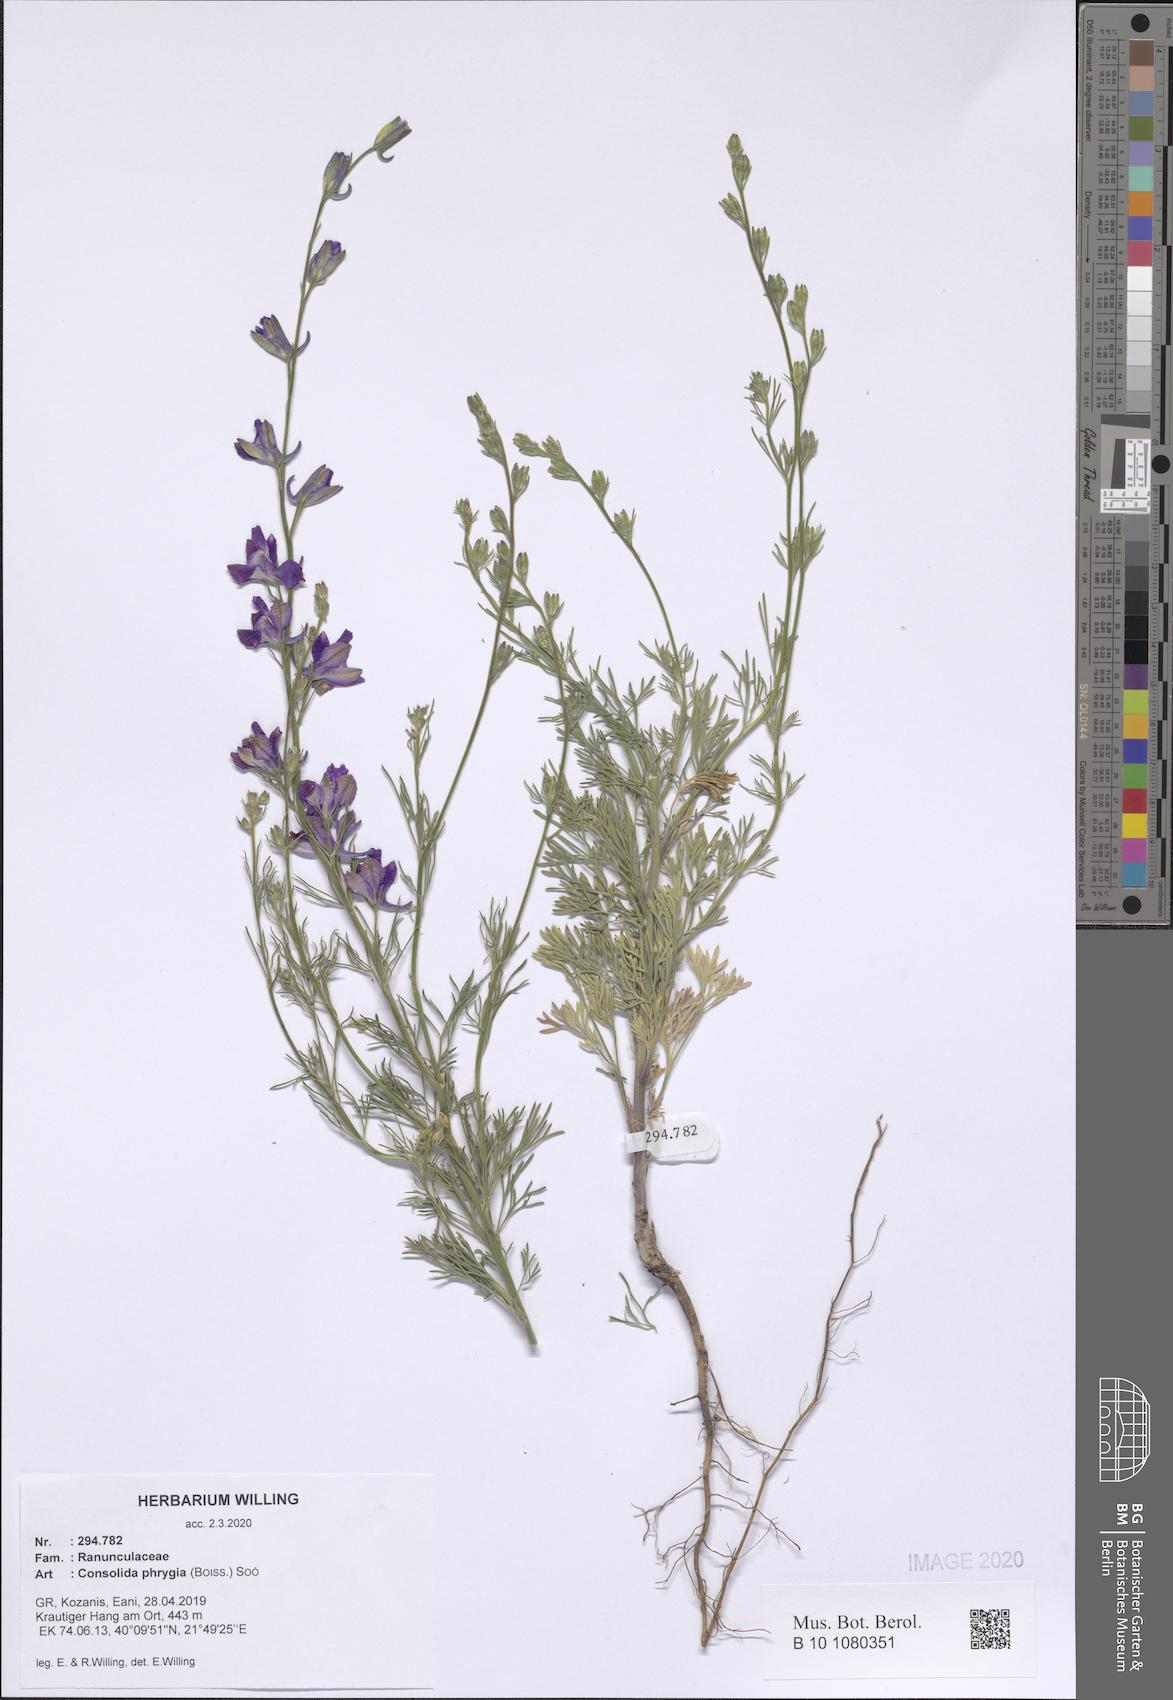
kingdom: Plantae
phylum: Tracheophyta
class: Magnoliopsida
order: Ranunculales
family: Ranunculaceae
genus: Delphinium
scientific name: Delphinium phrygium
